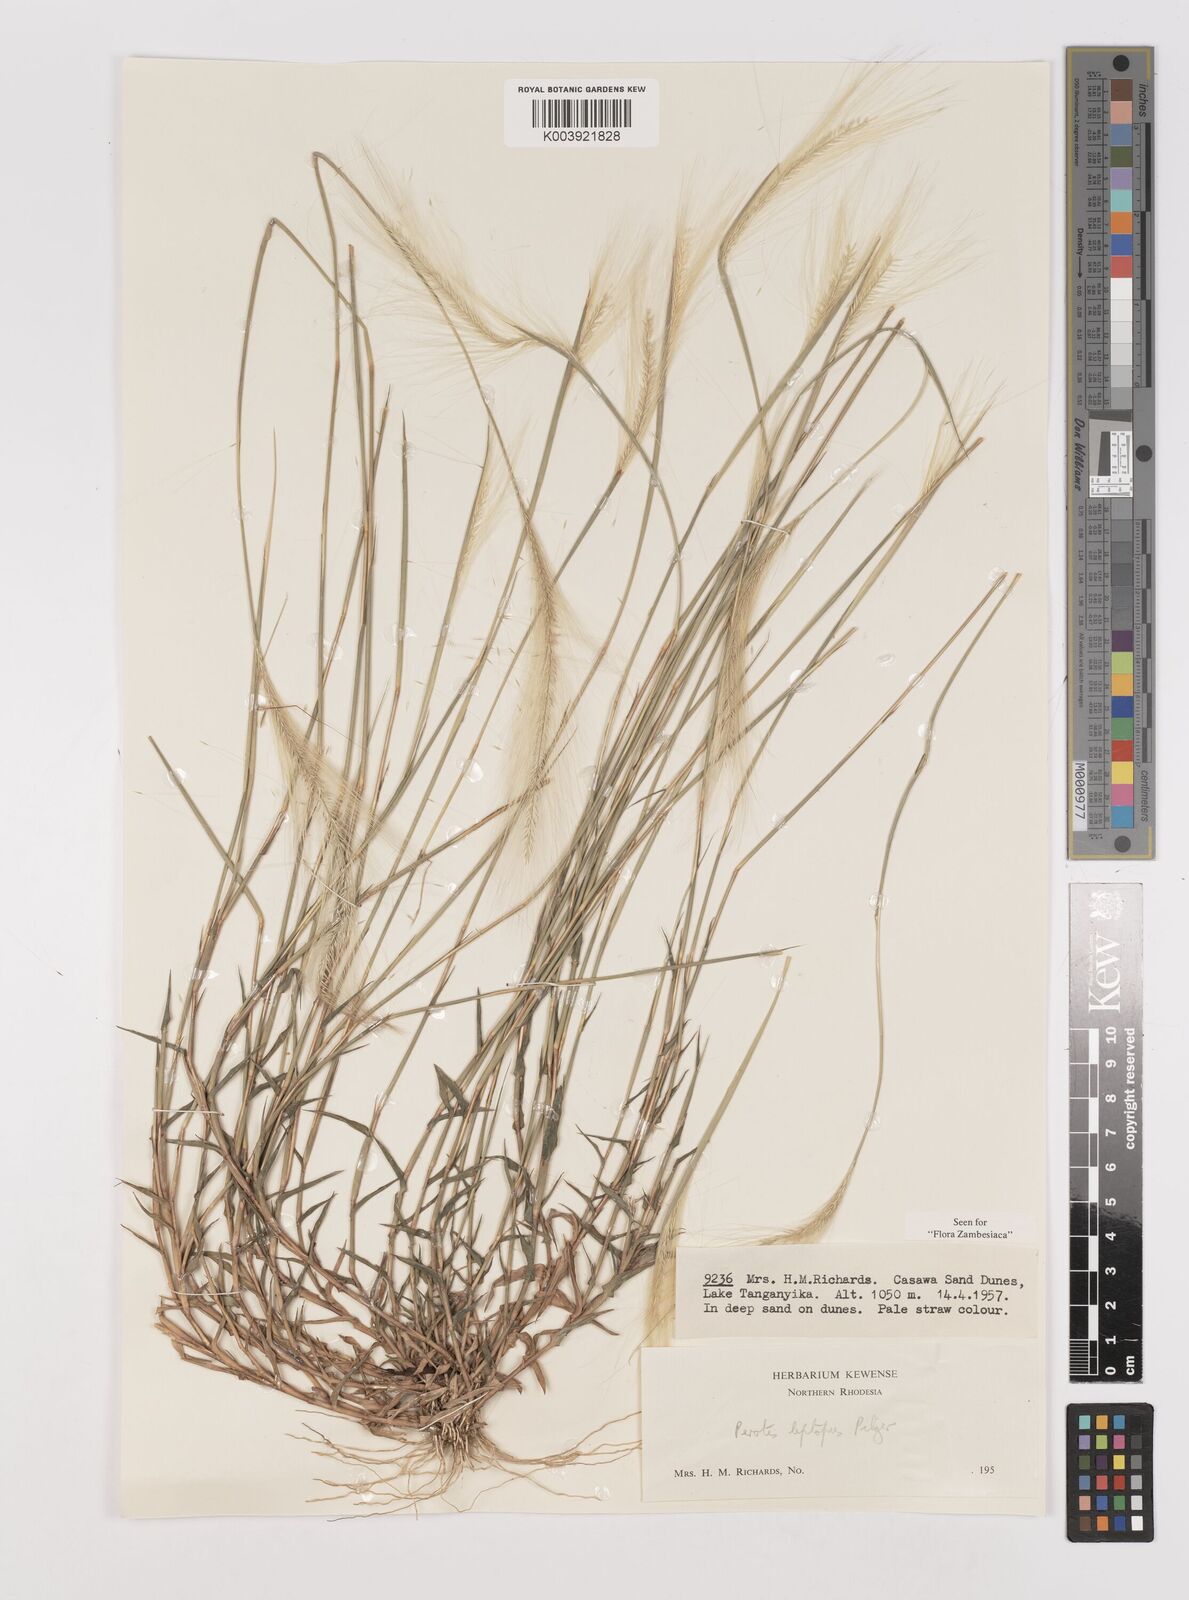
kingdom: Plantae
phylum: Tracheophyta
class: Liliopsida
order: Poales
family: Poaceae
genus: Perotis
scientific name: Perotis leptopus
